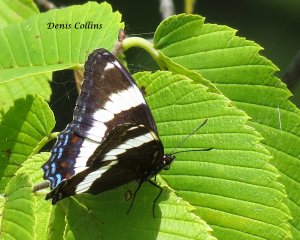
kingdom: Animalia
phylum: Arthropoda
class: Insecta
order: Lepidoptera
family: Nymphalidae
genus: Limenitis
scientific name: Limenitis arthemis
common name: Red-spotted Admiral
